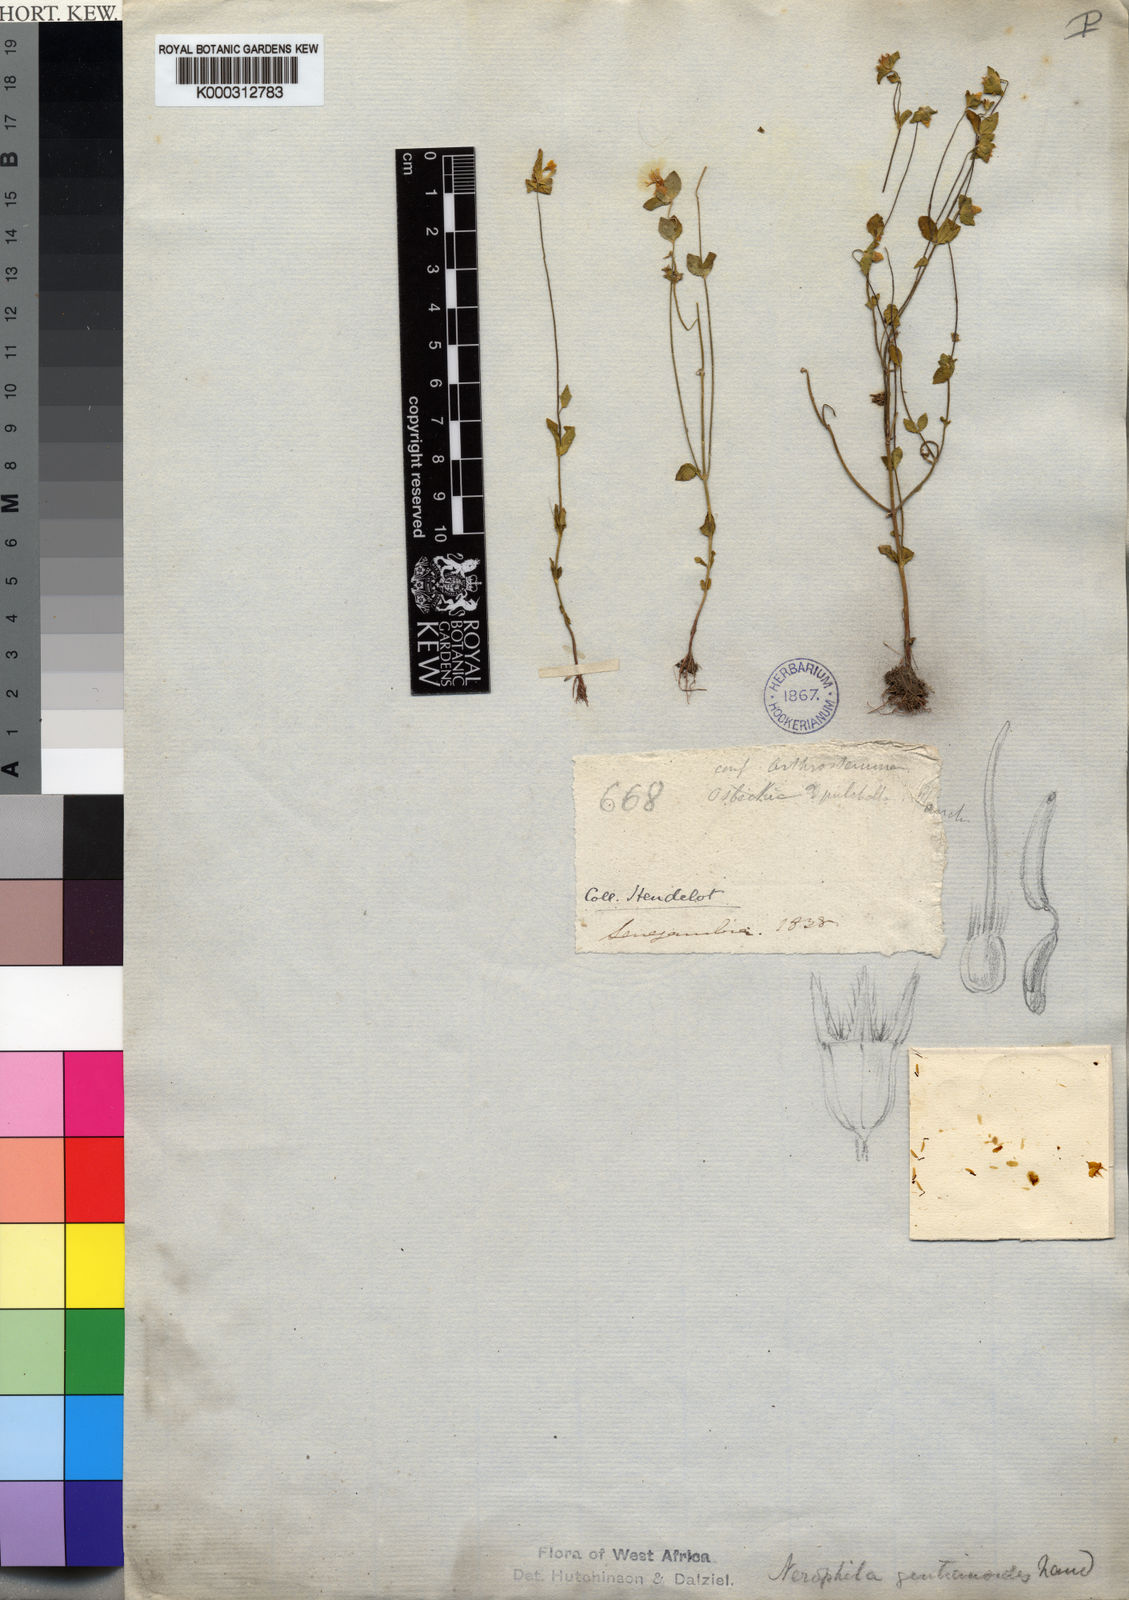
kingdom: Plantae
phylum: Tracheophyta
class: Magnoliopsida
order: Myrtales
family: Melastomataceae
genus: Chaetolepis
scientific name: Chaetolepis
